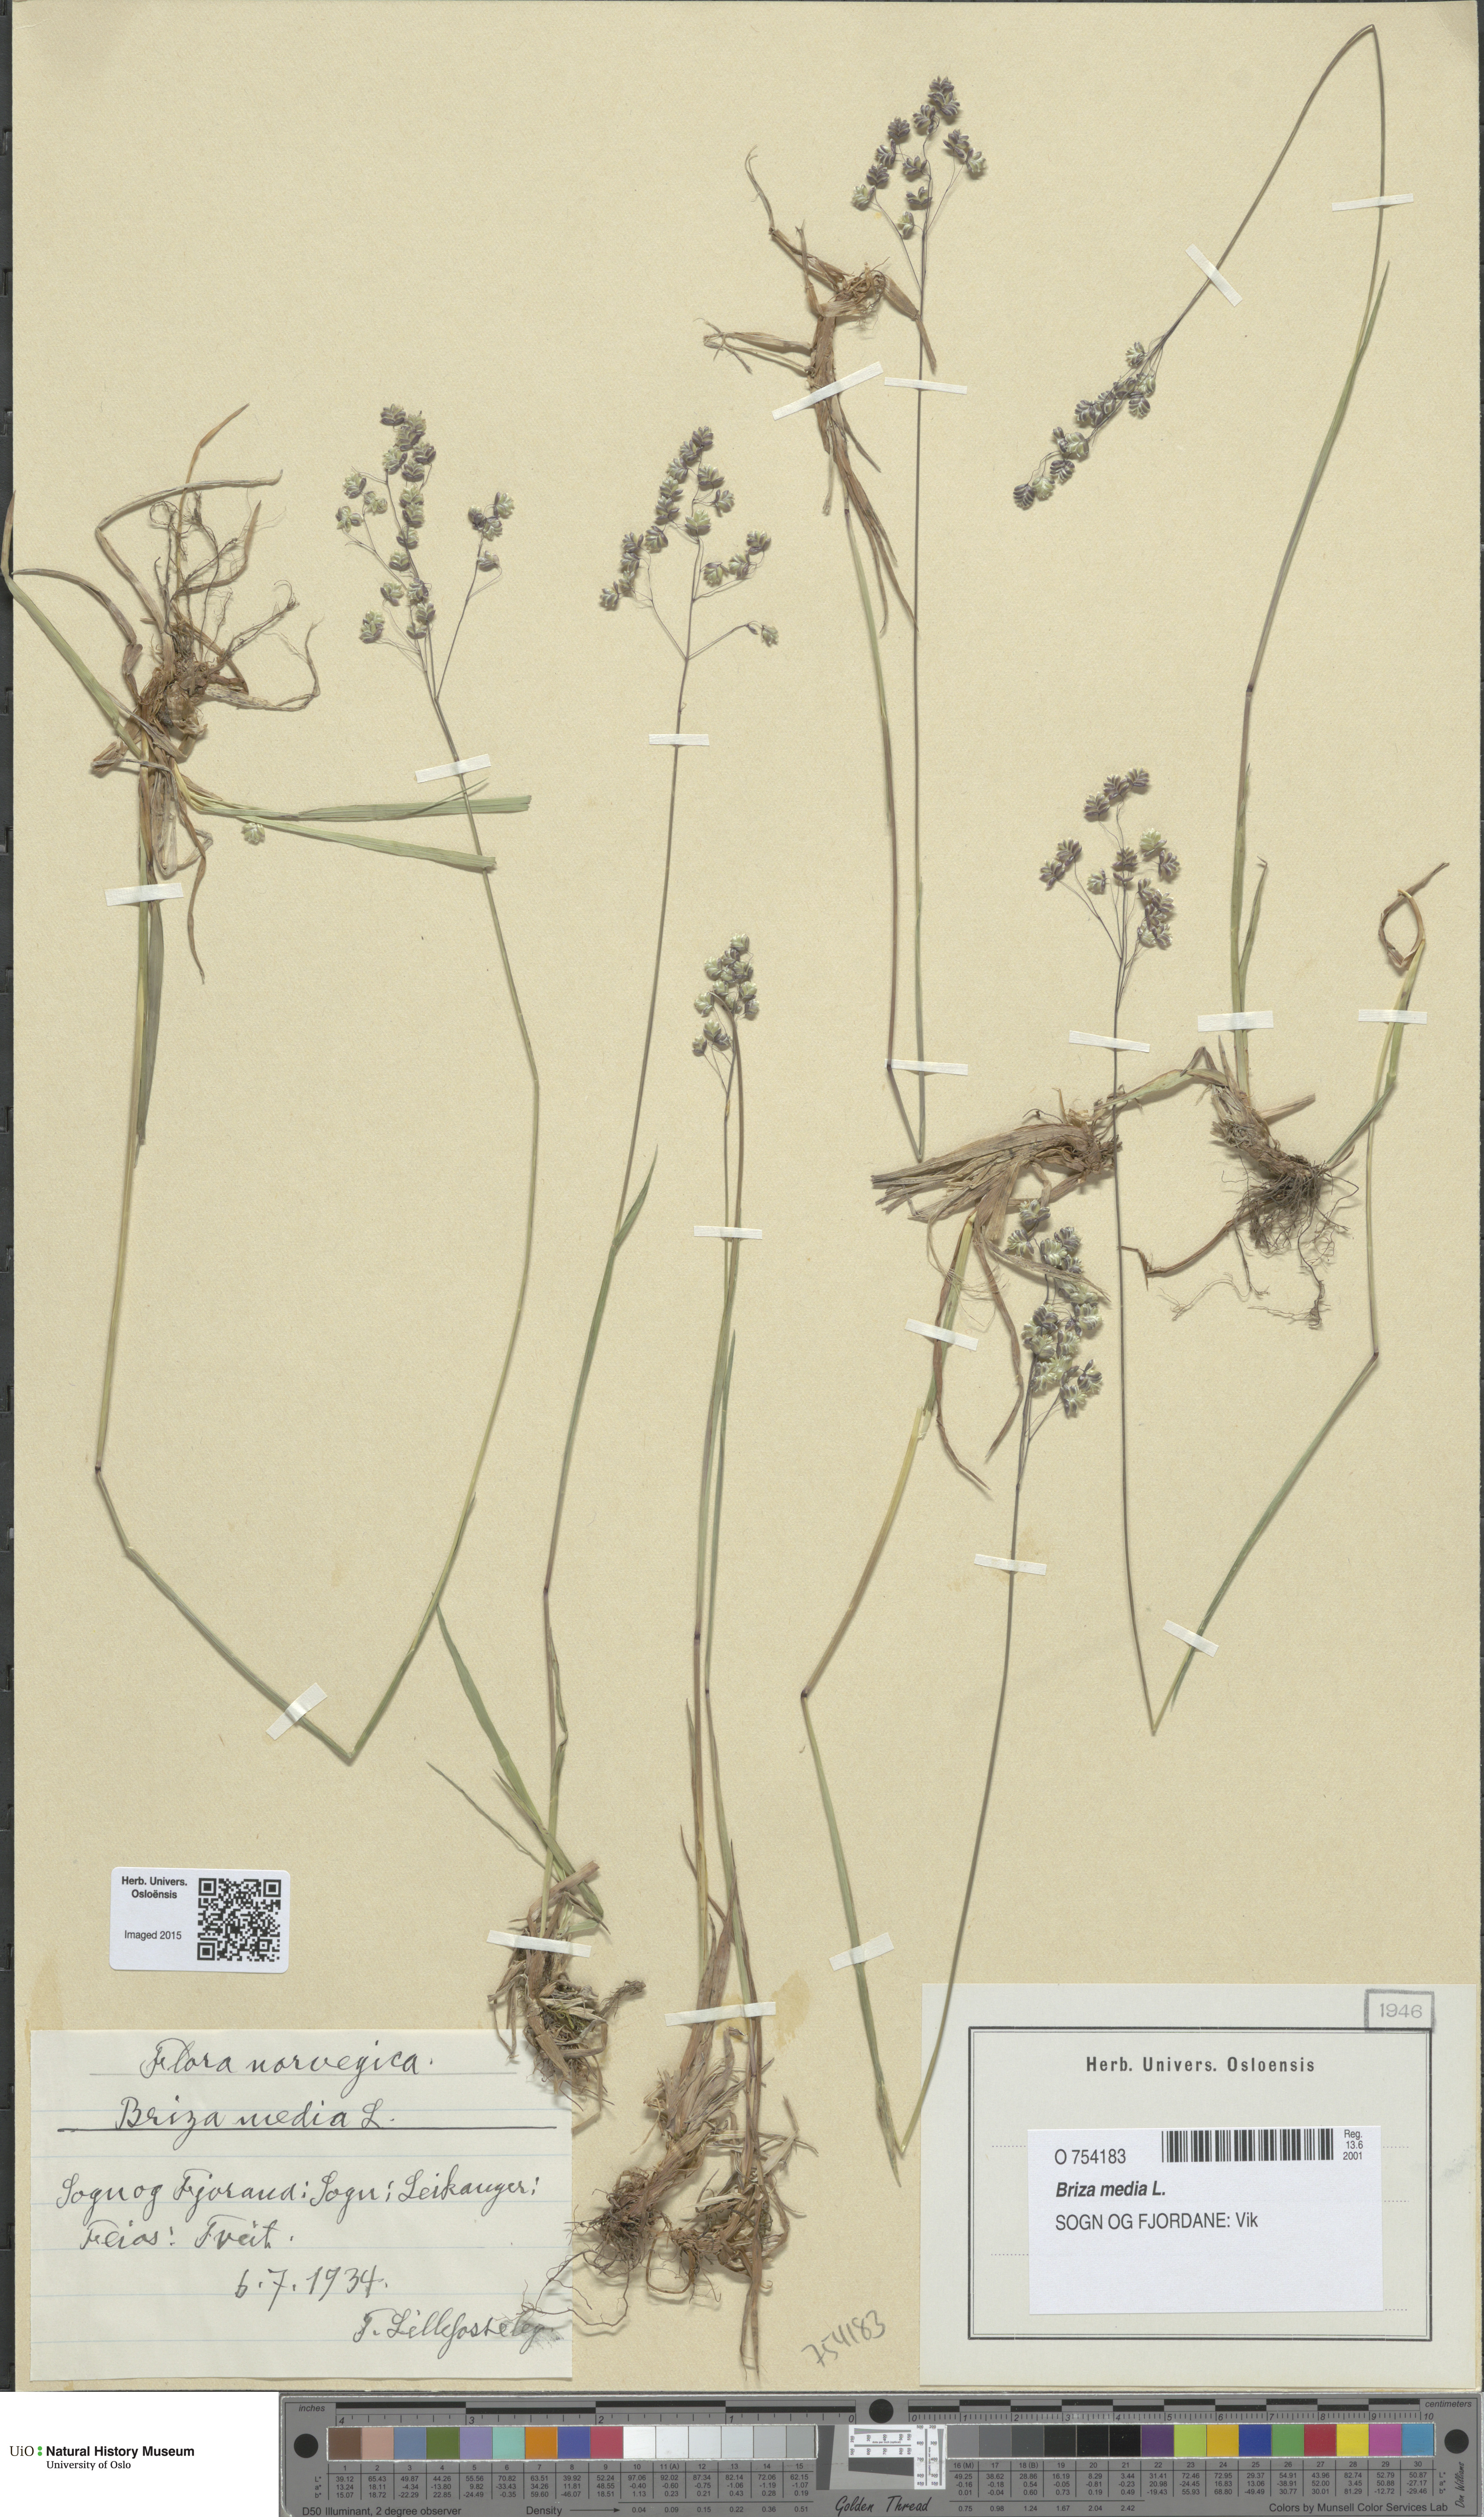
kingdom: Plantae
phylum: Tracheophyta
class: Liliopsida
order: Poales
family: Poaceae
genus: Briza
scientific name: Briza media
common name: Quaking grass
